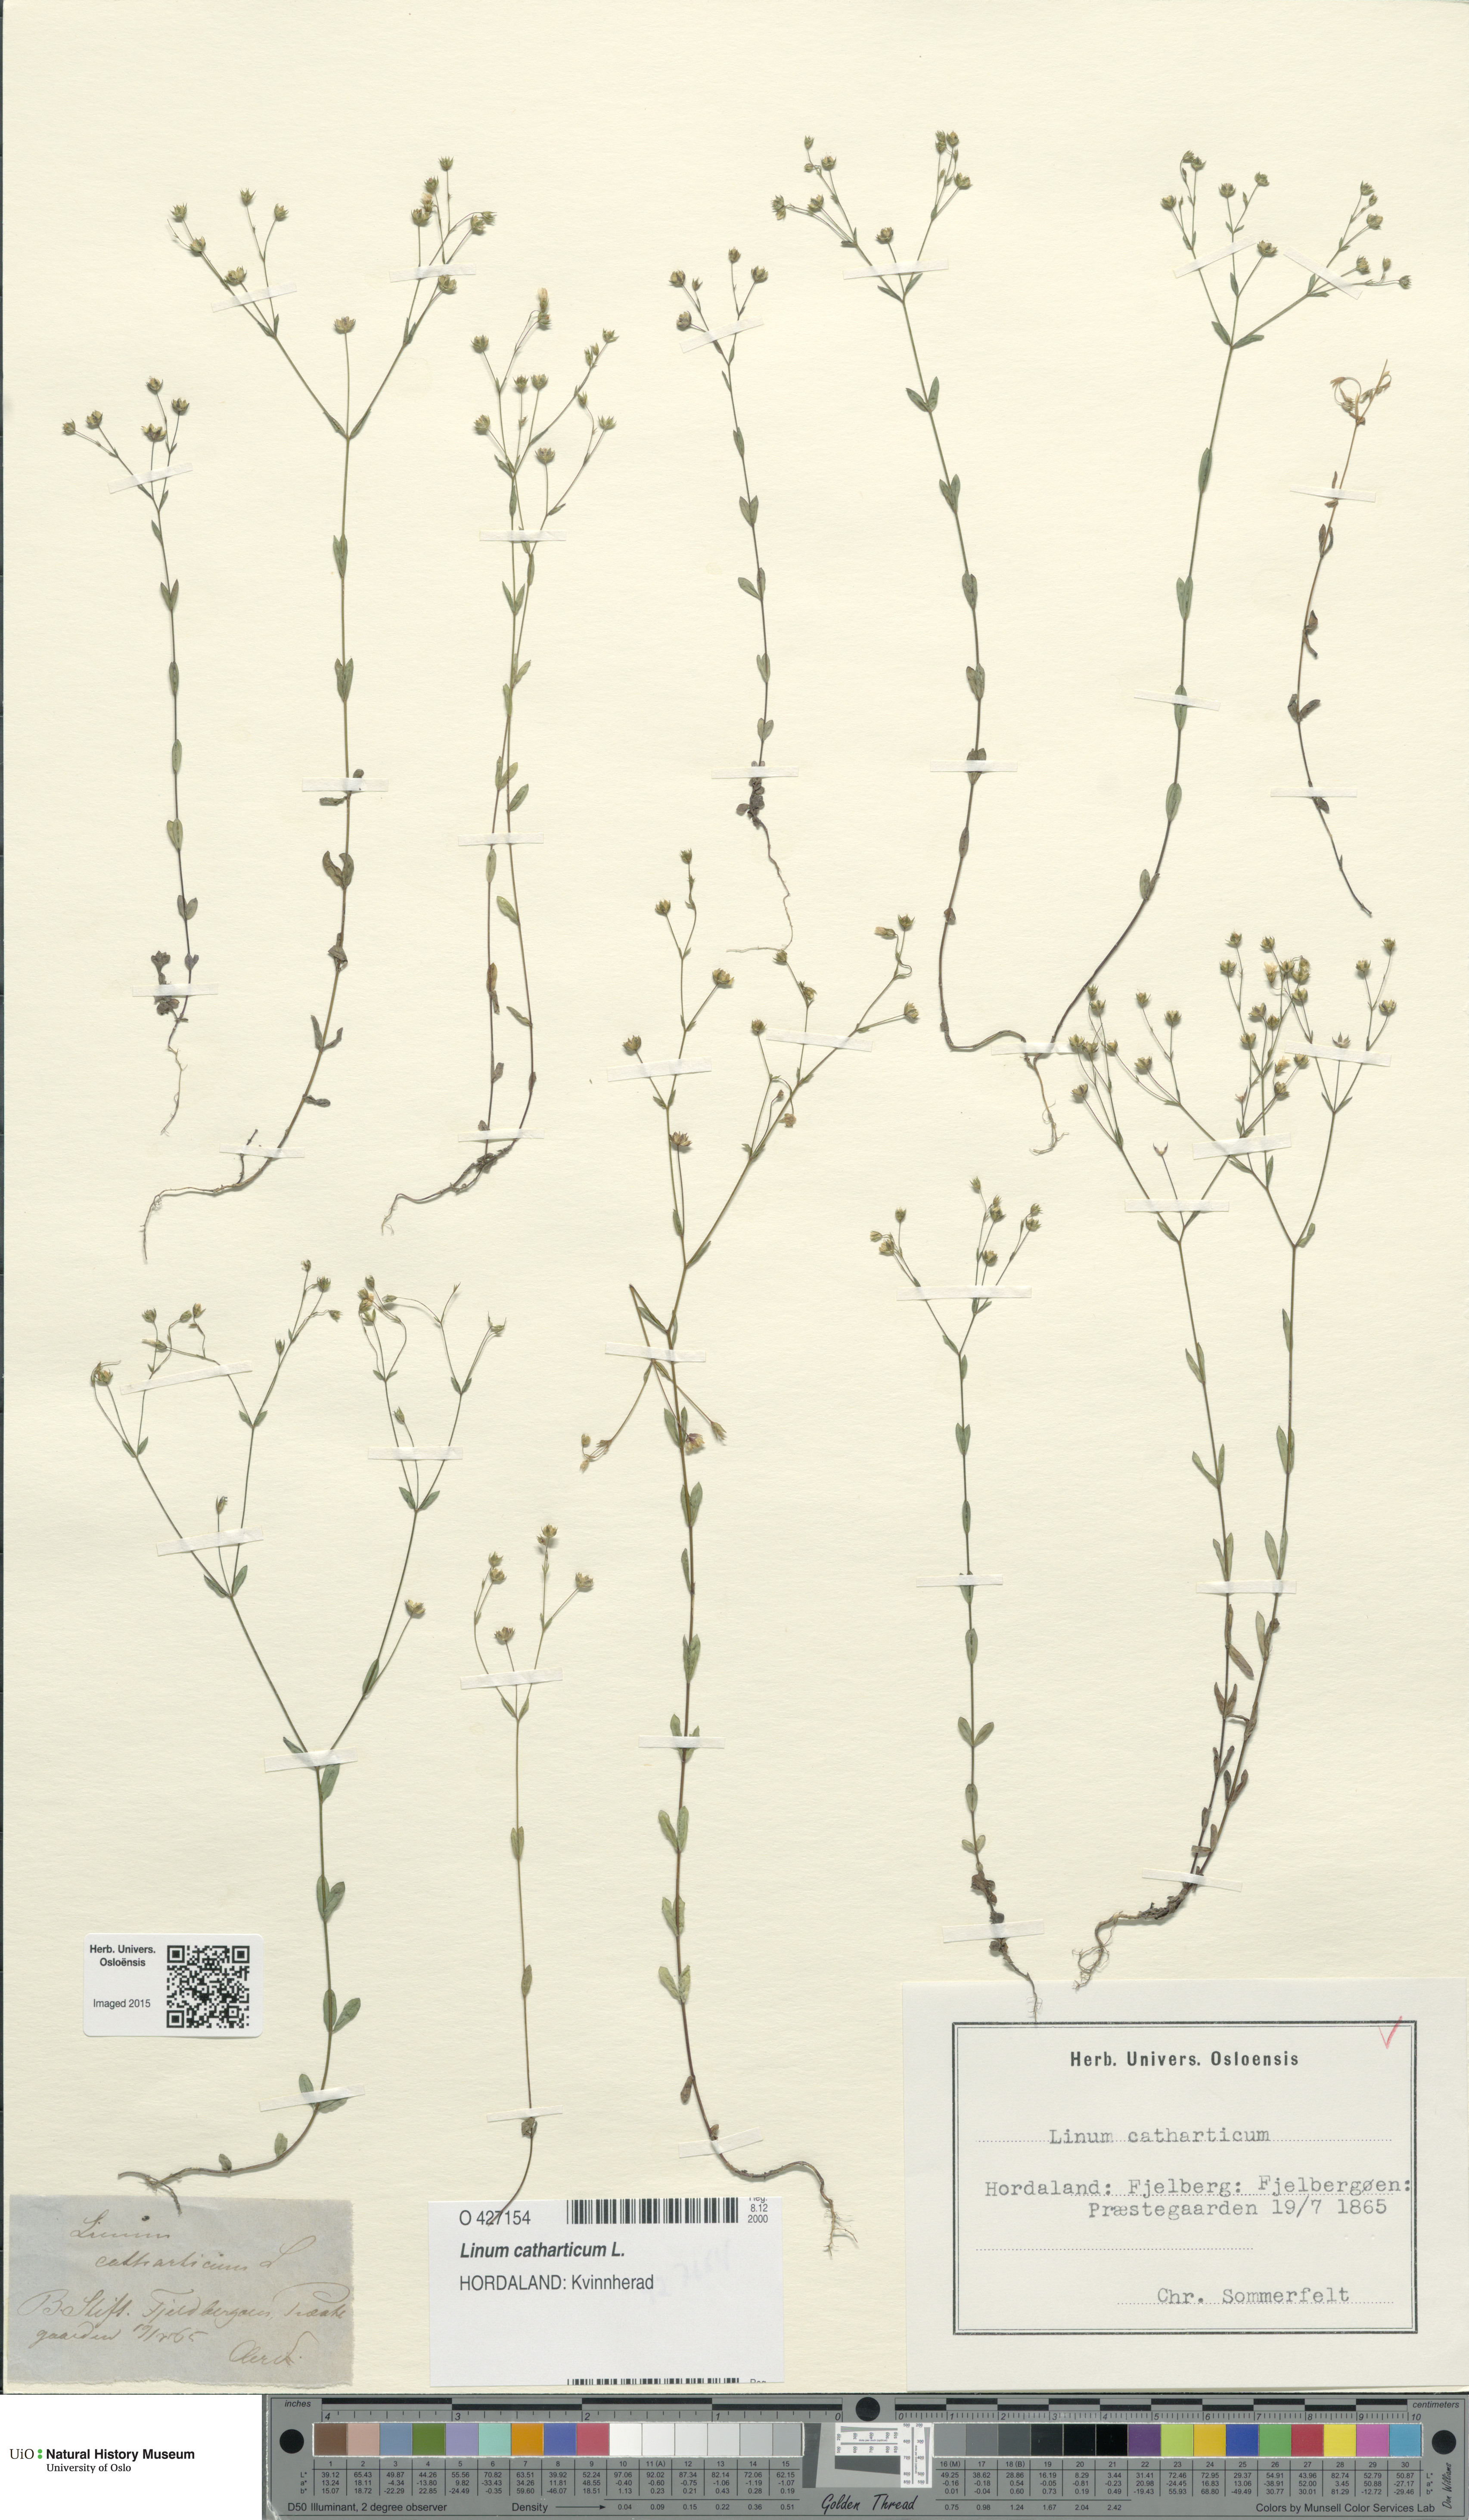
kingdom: Plantae
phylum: Tracheophyta
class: Magnoliopsida
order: Malpighiales
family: Linaceae
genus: Linum
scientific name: Linum catharticum
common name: Fairy flax
